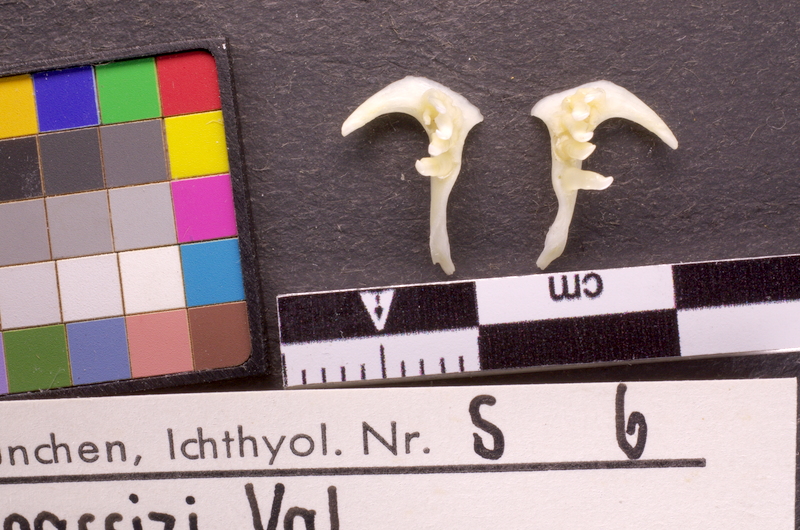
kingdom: Animalia
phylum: Chordata
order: Cypriniformes
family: Cyprinidae
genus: Telestes
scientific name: Telestes souffia
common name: Souffia
